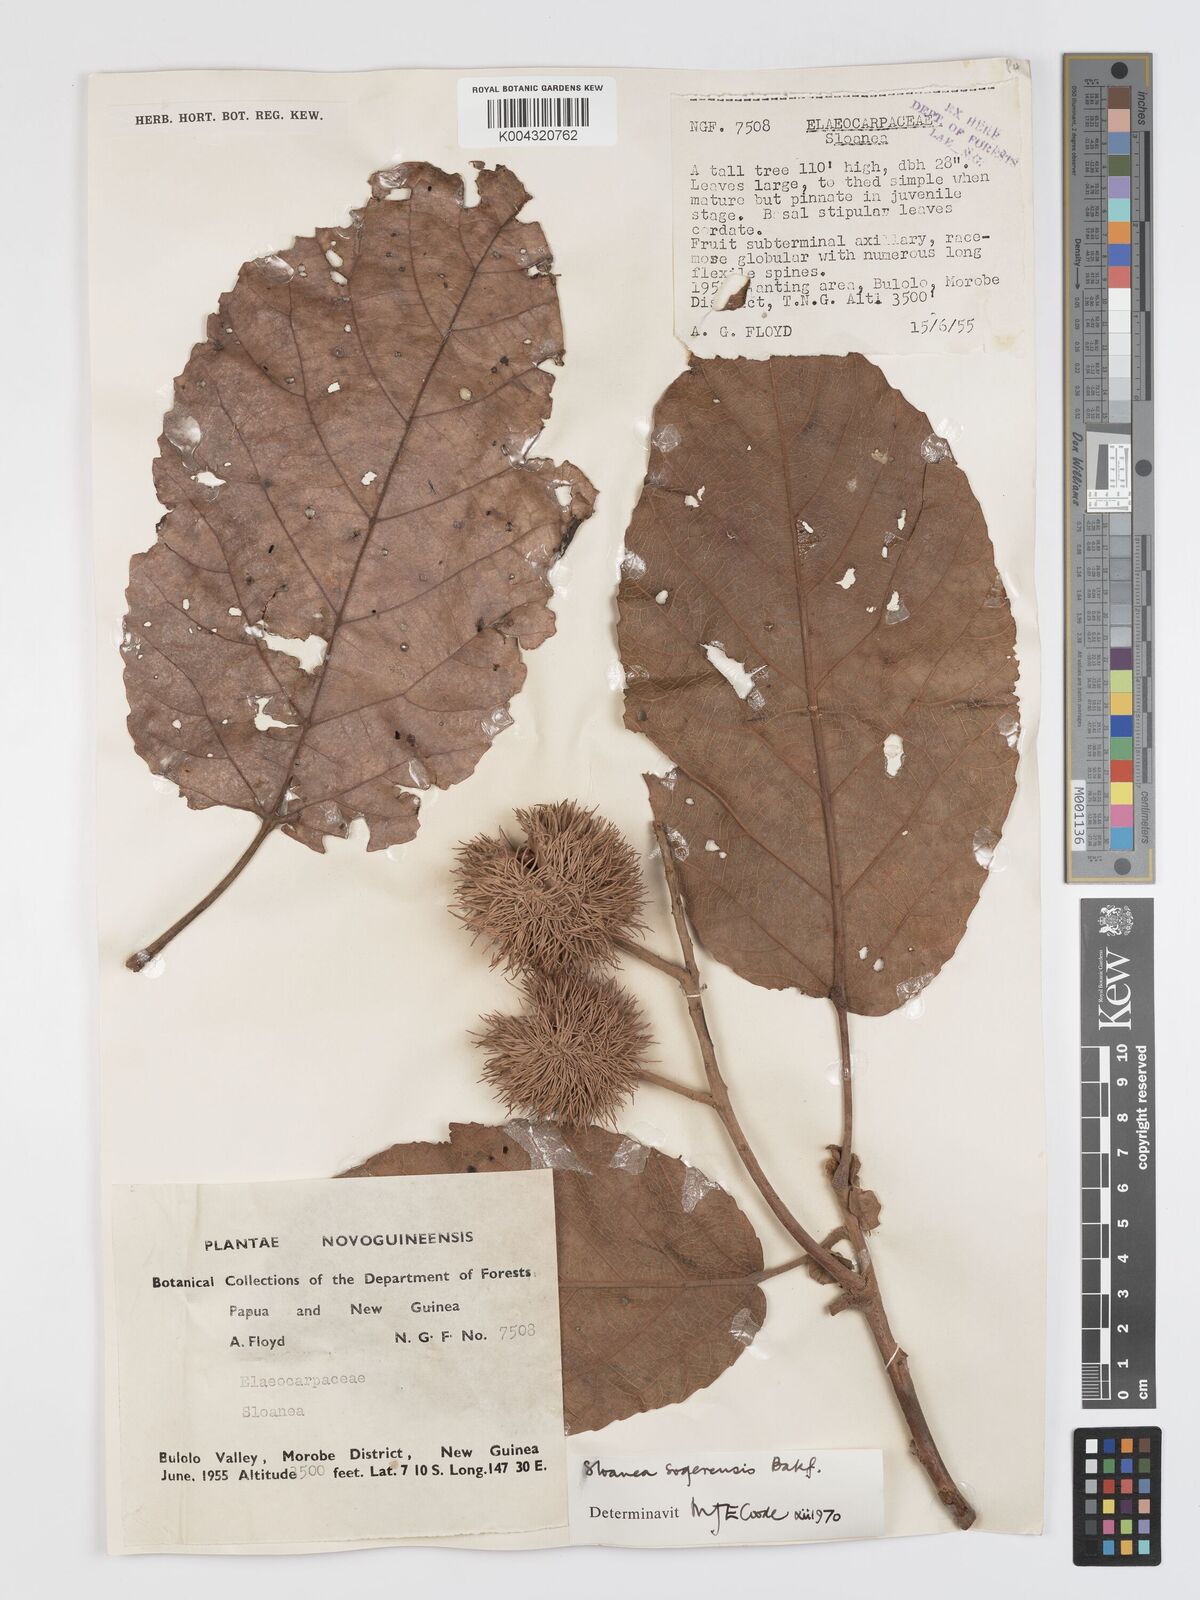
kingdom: Plantae
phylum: Tracheophyta
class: Magnoliopsida
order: Oxalidales
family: Elaeocarpaceae
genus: Sloanea
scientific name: Sloanea sogerensis
